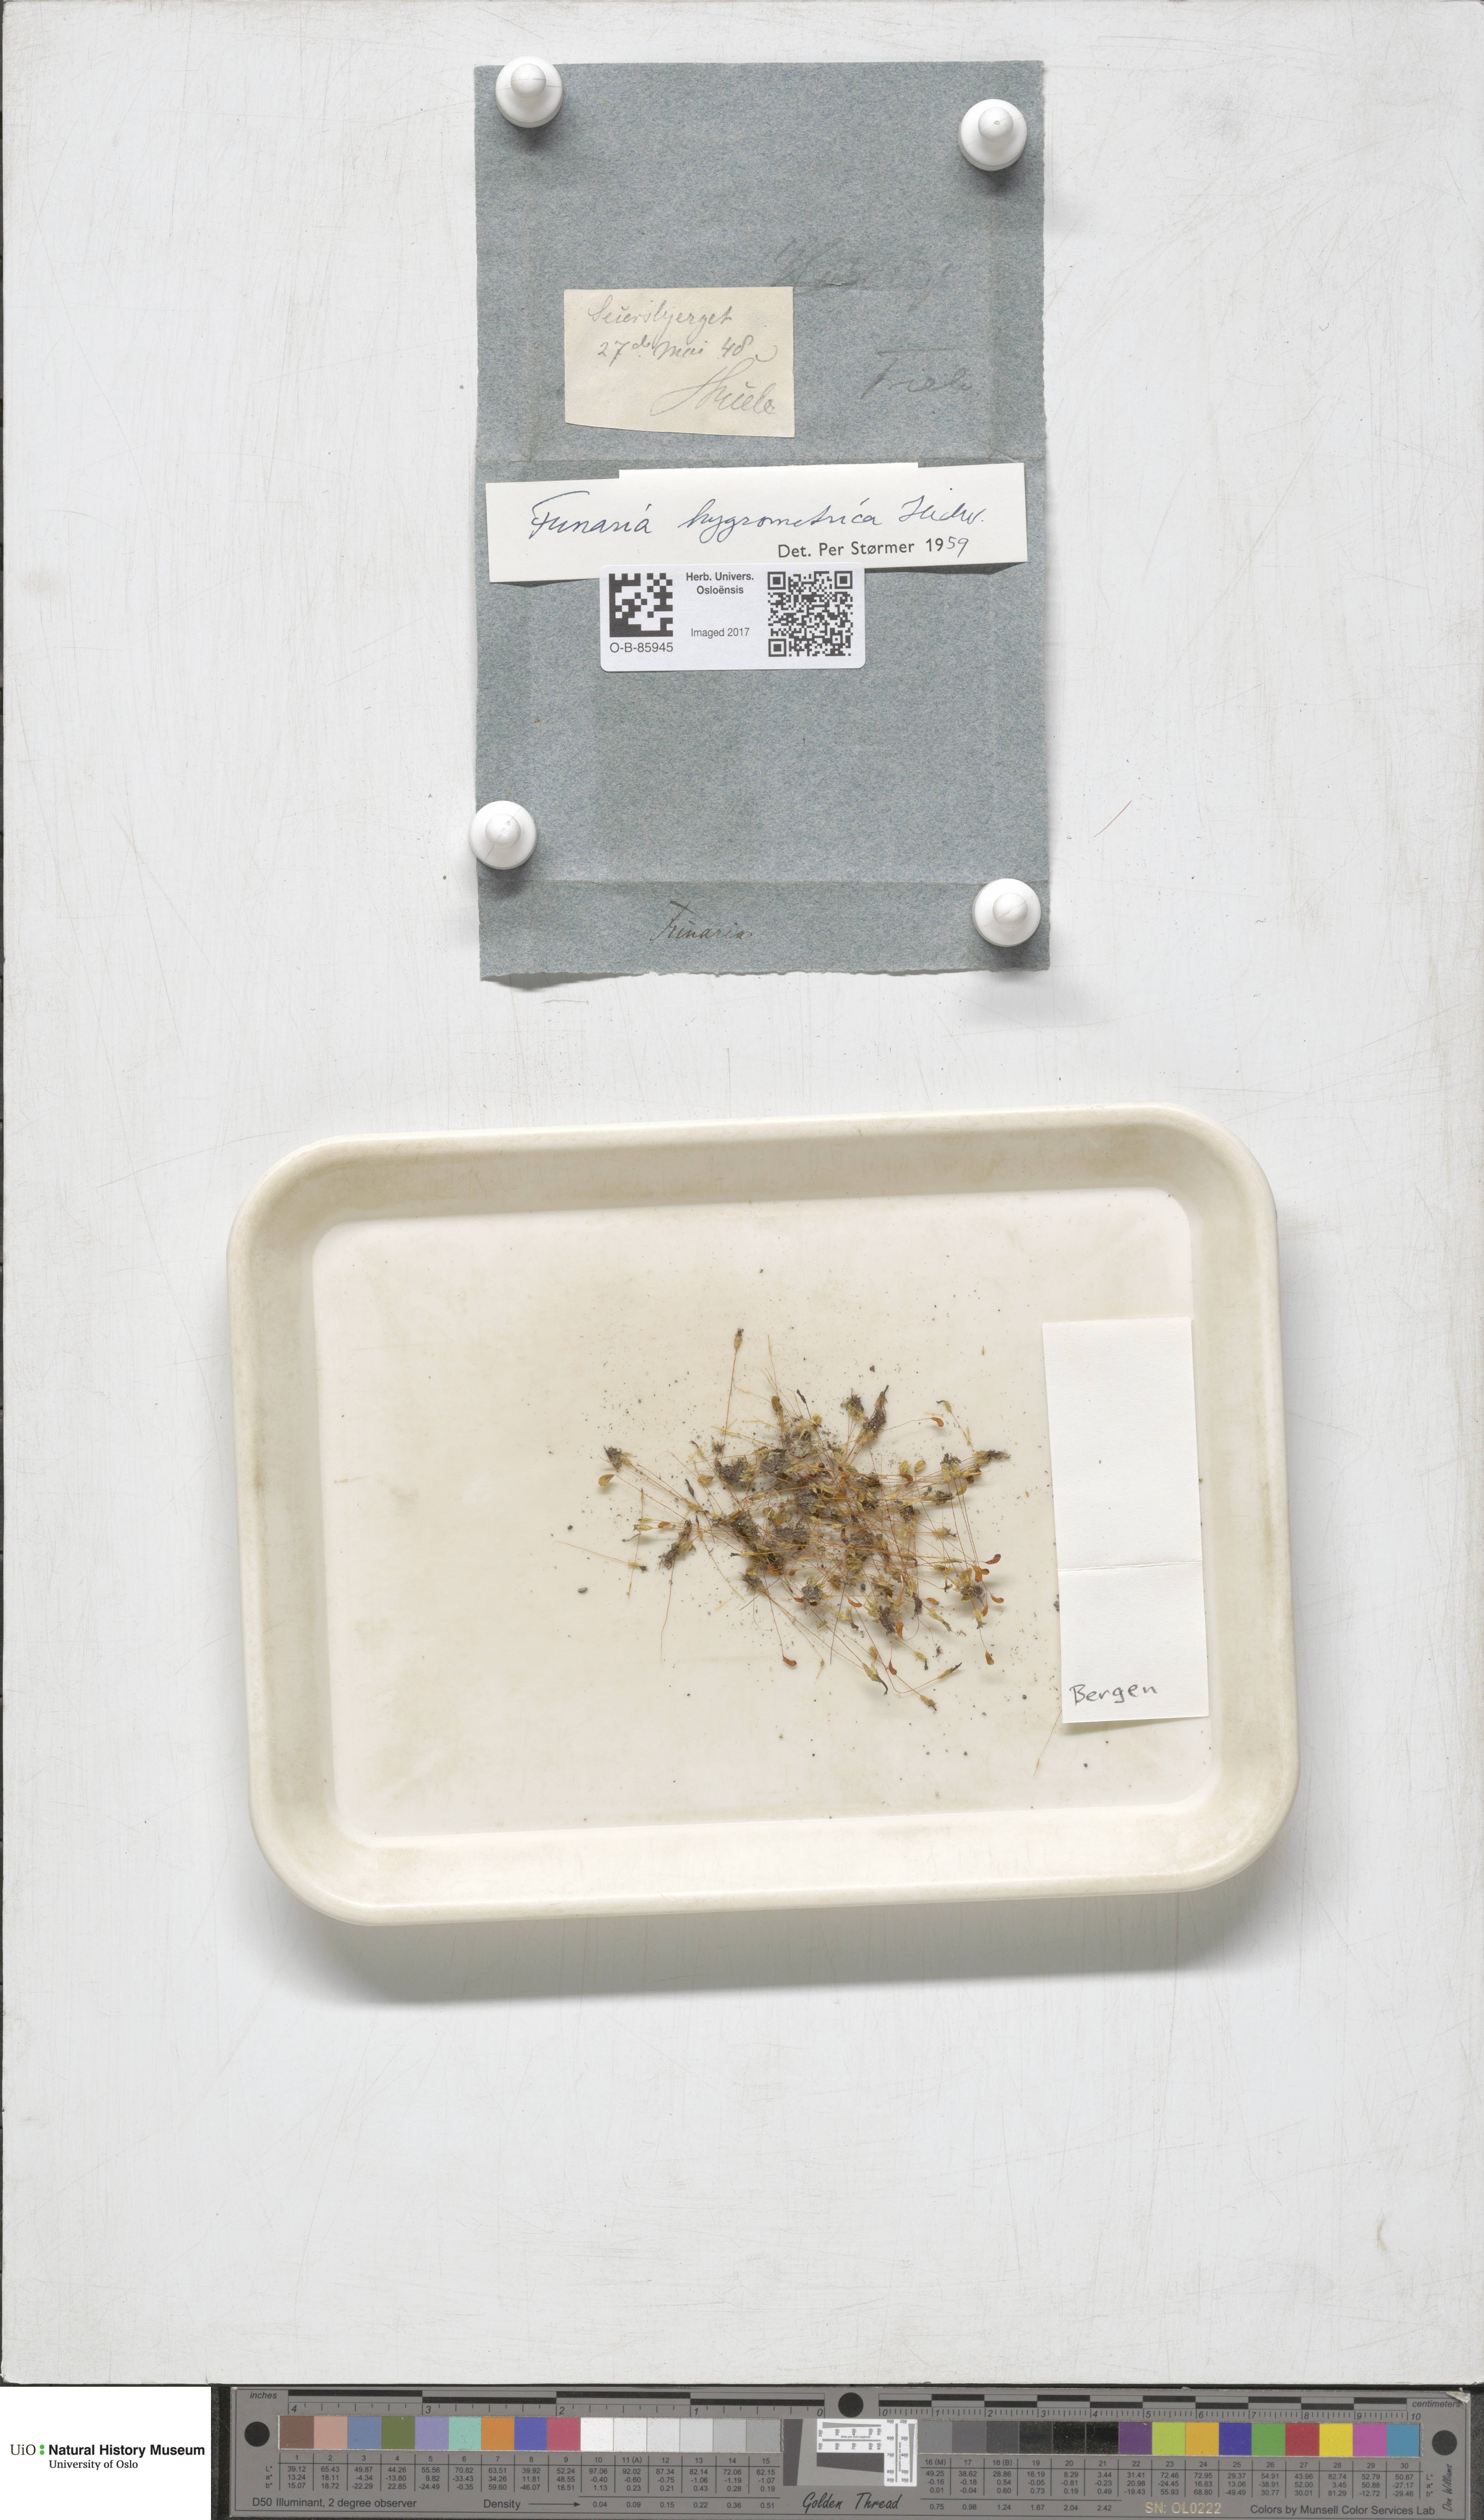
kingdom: Plantae
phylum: Bryophyta
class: Bryopsida
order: Funariales
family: Funariaceae
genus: Funaria
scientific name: Funaria hygrometrica
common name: Common cord moss
